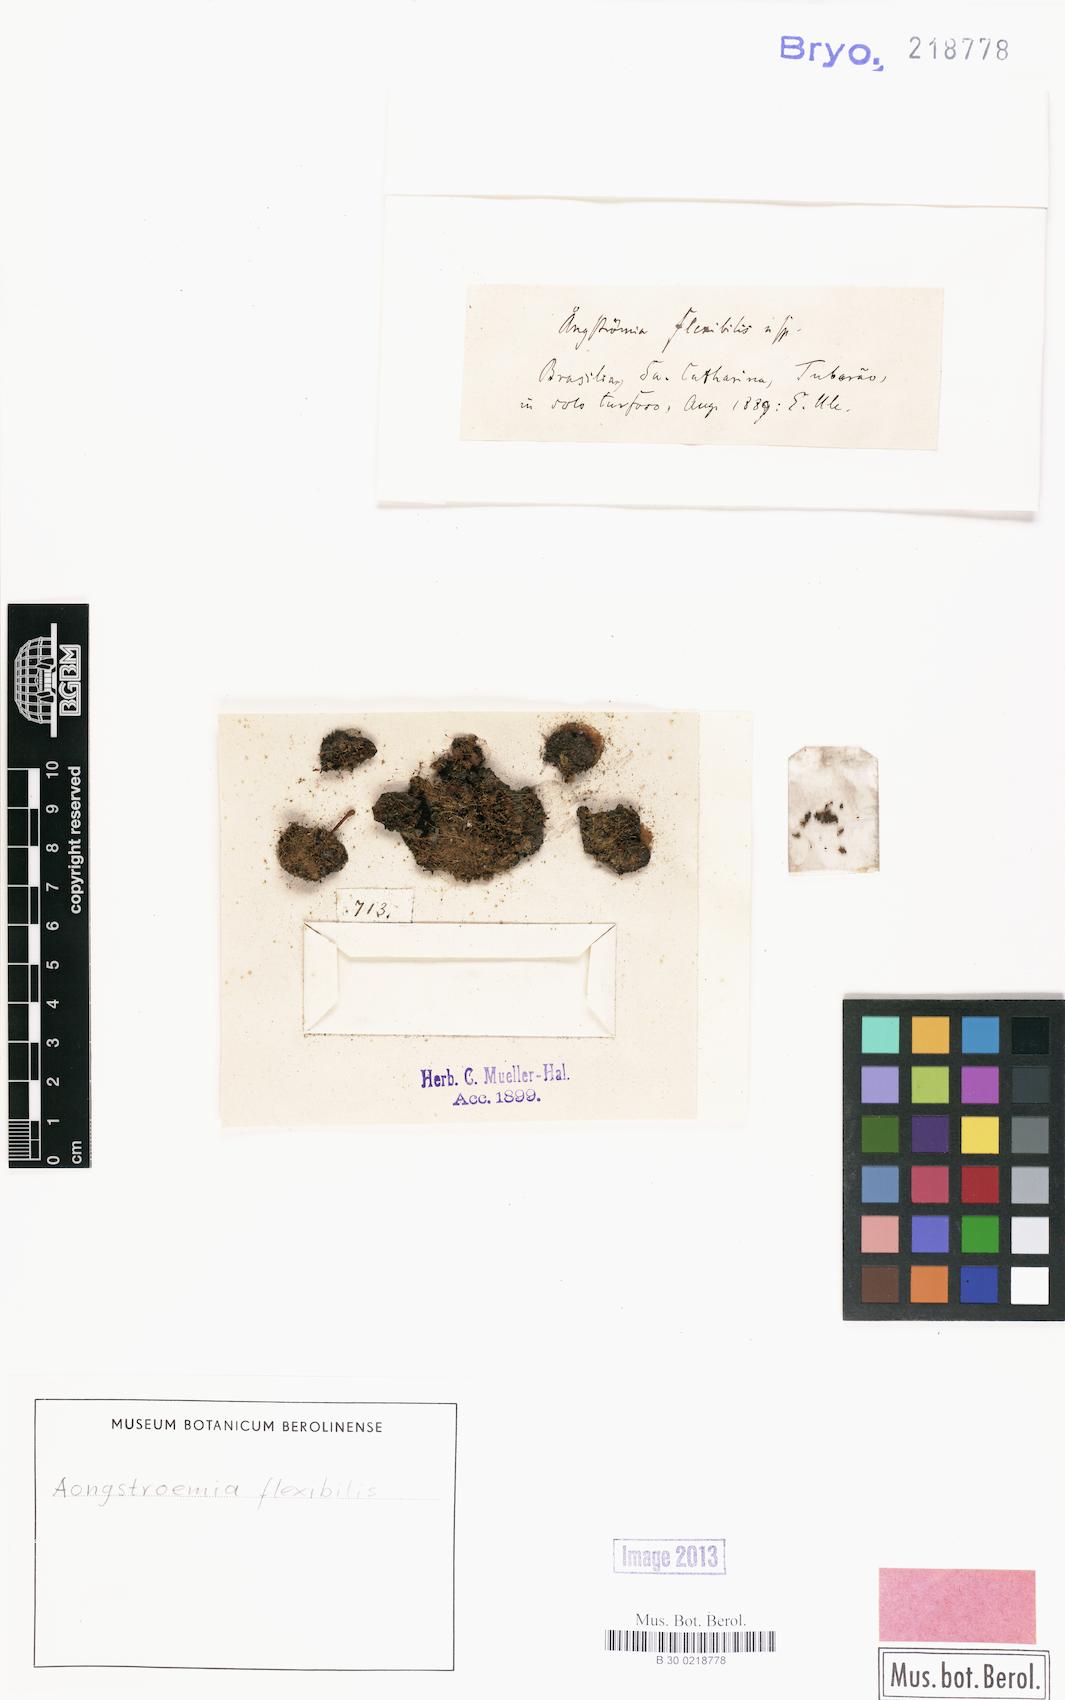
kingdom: Plantae
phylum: Bryophyta
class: Bryopsida
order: Dicranales
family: Aongstroemiaceae
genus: Aongstroemia
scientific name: Aongstroemia
